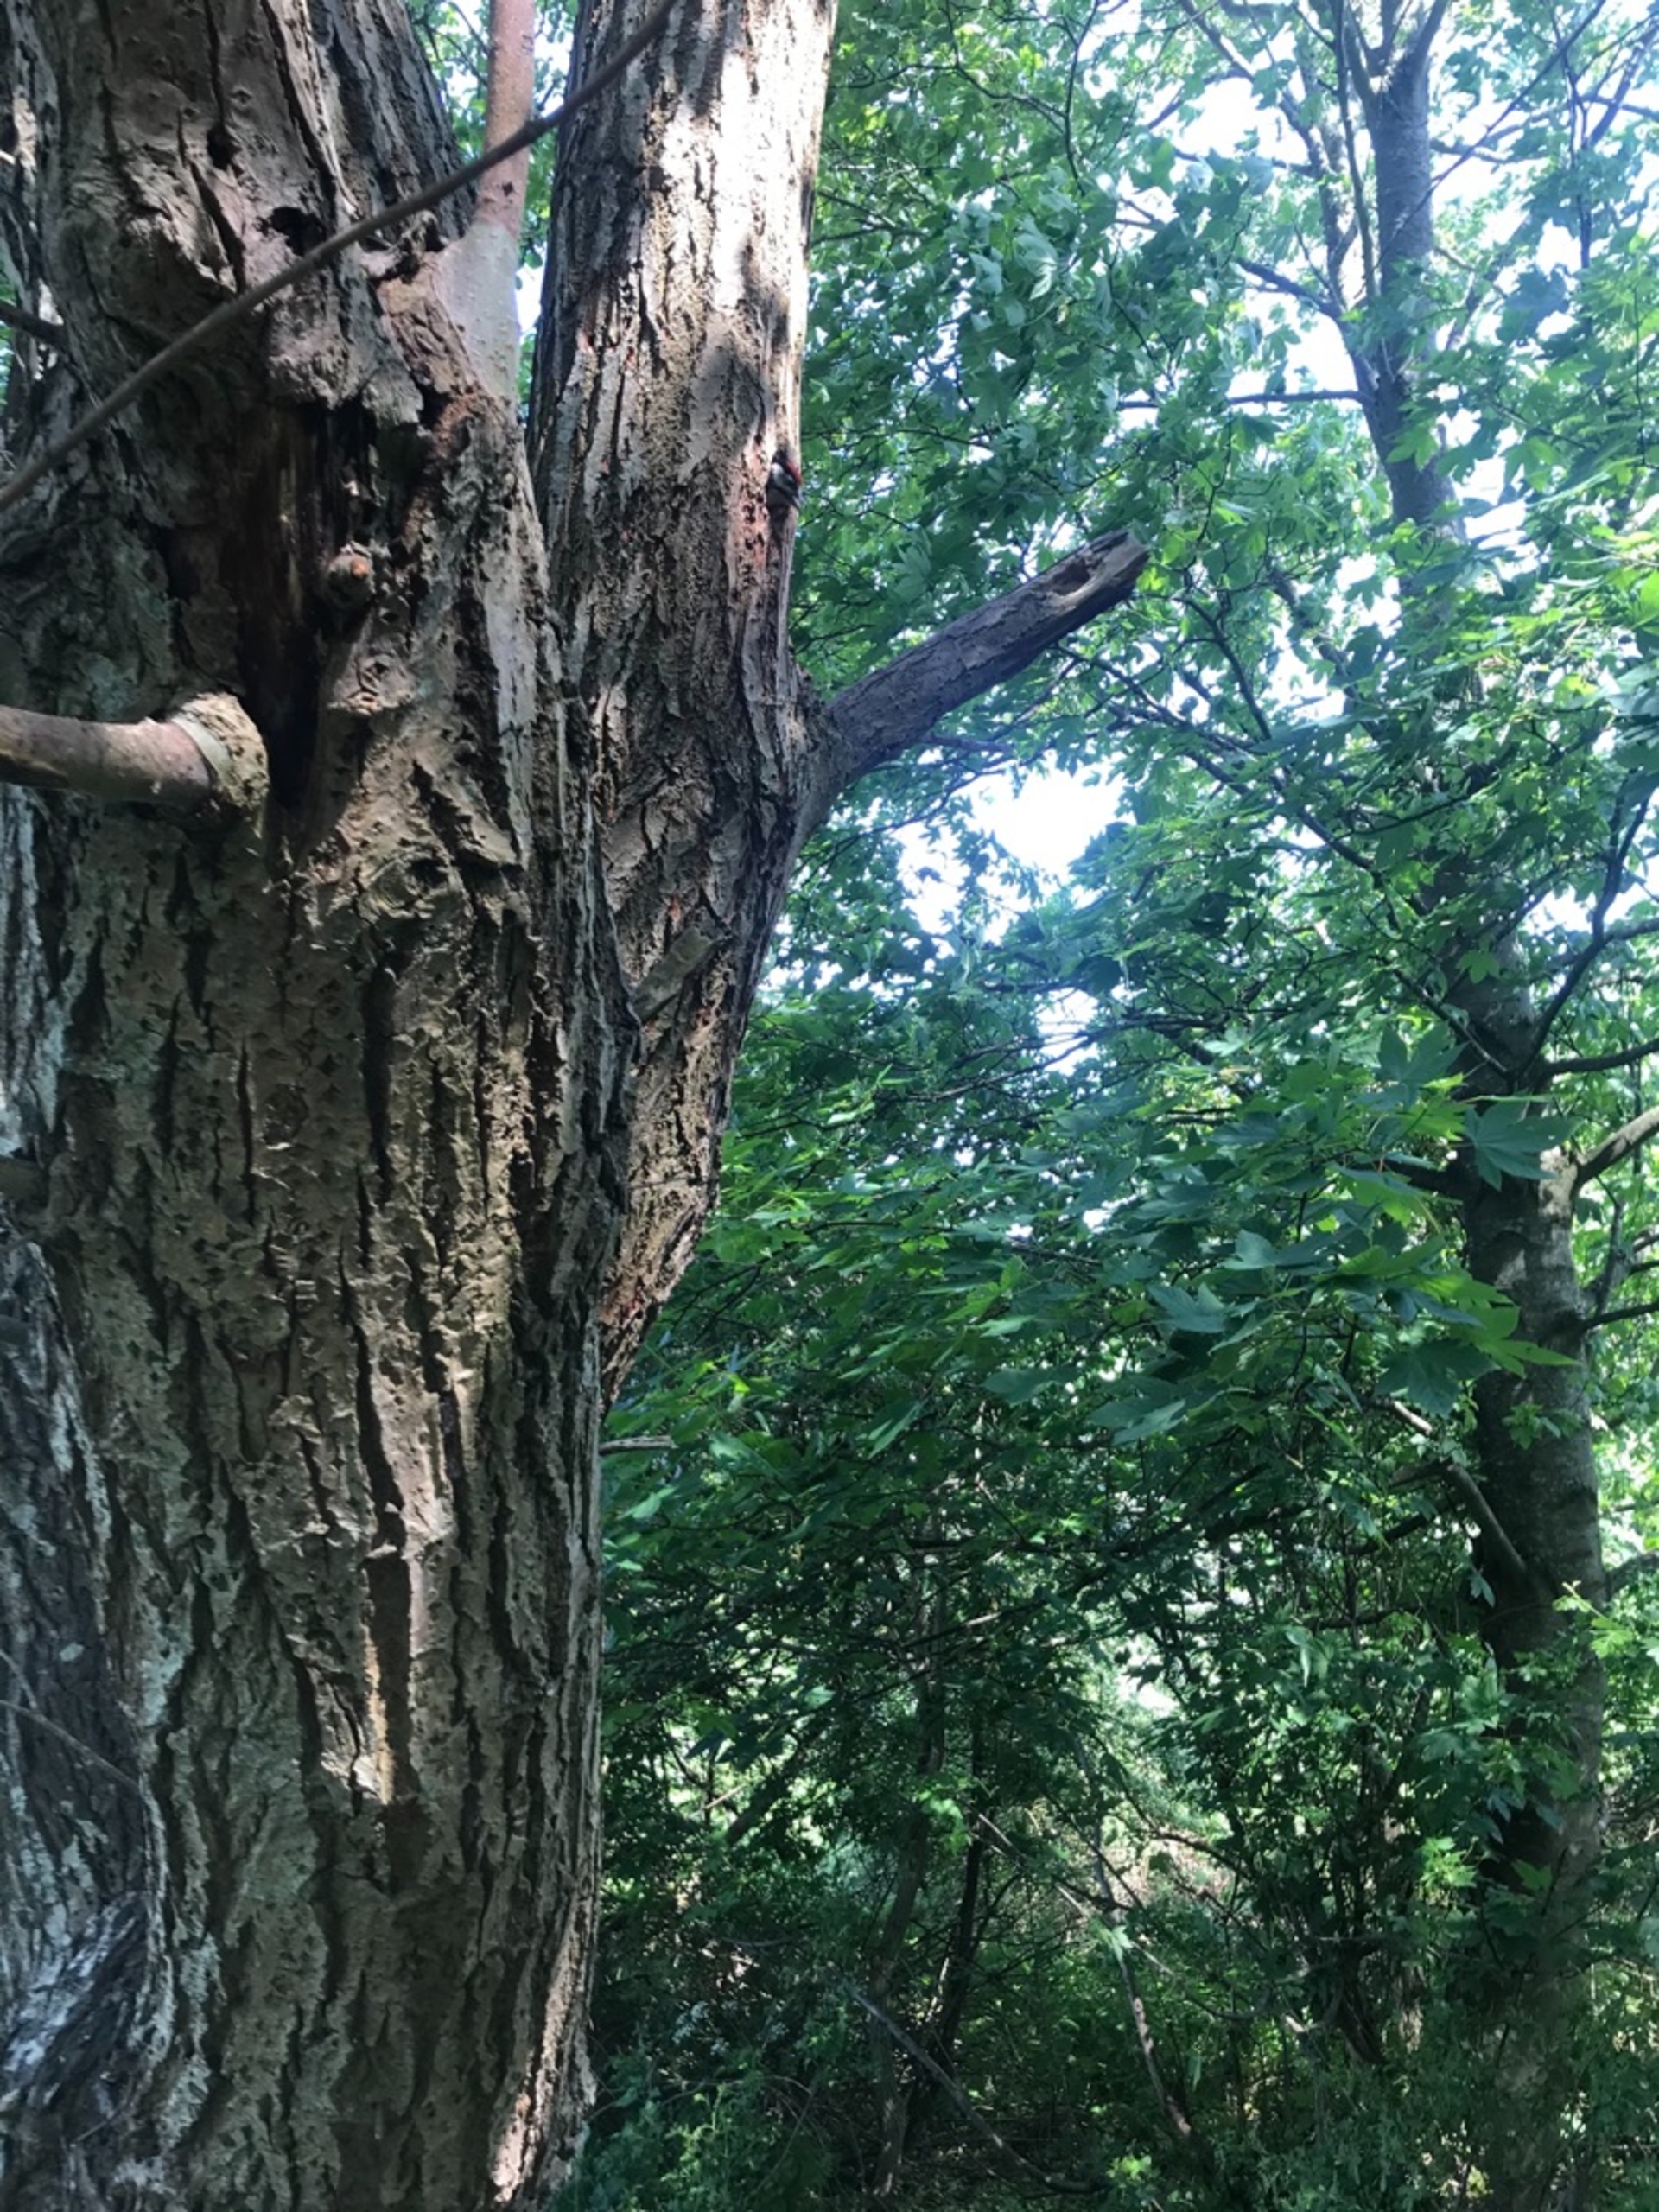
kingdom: Animalia
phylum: Chordata
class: Aves
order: Piciformes
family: Picidae
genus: Dendrocopos
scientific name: Dendrocopos major
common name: Stor flagspætte
